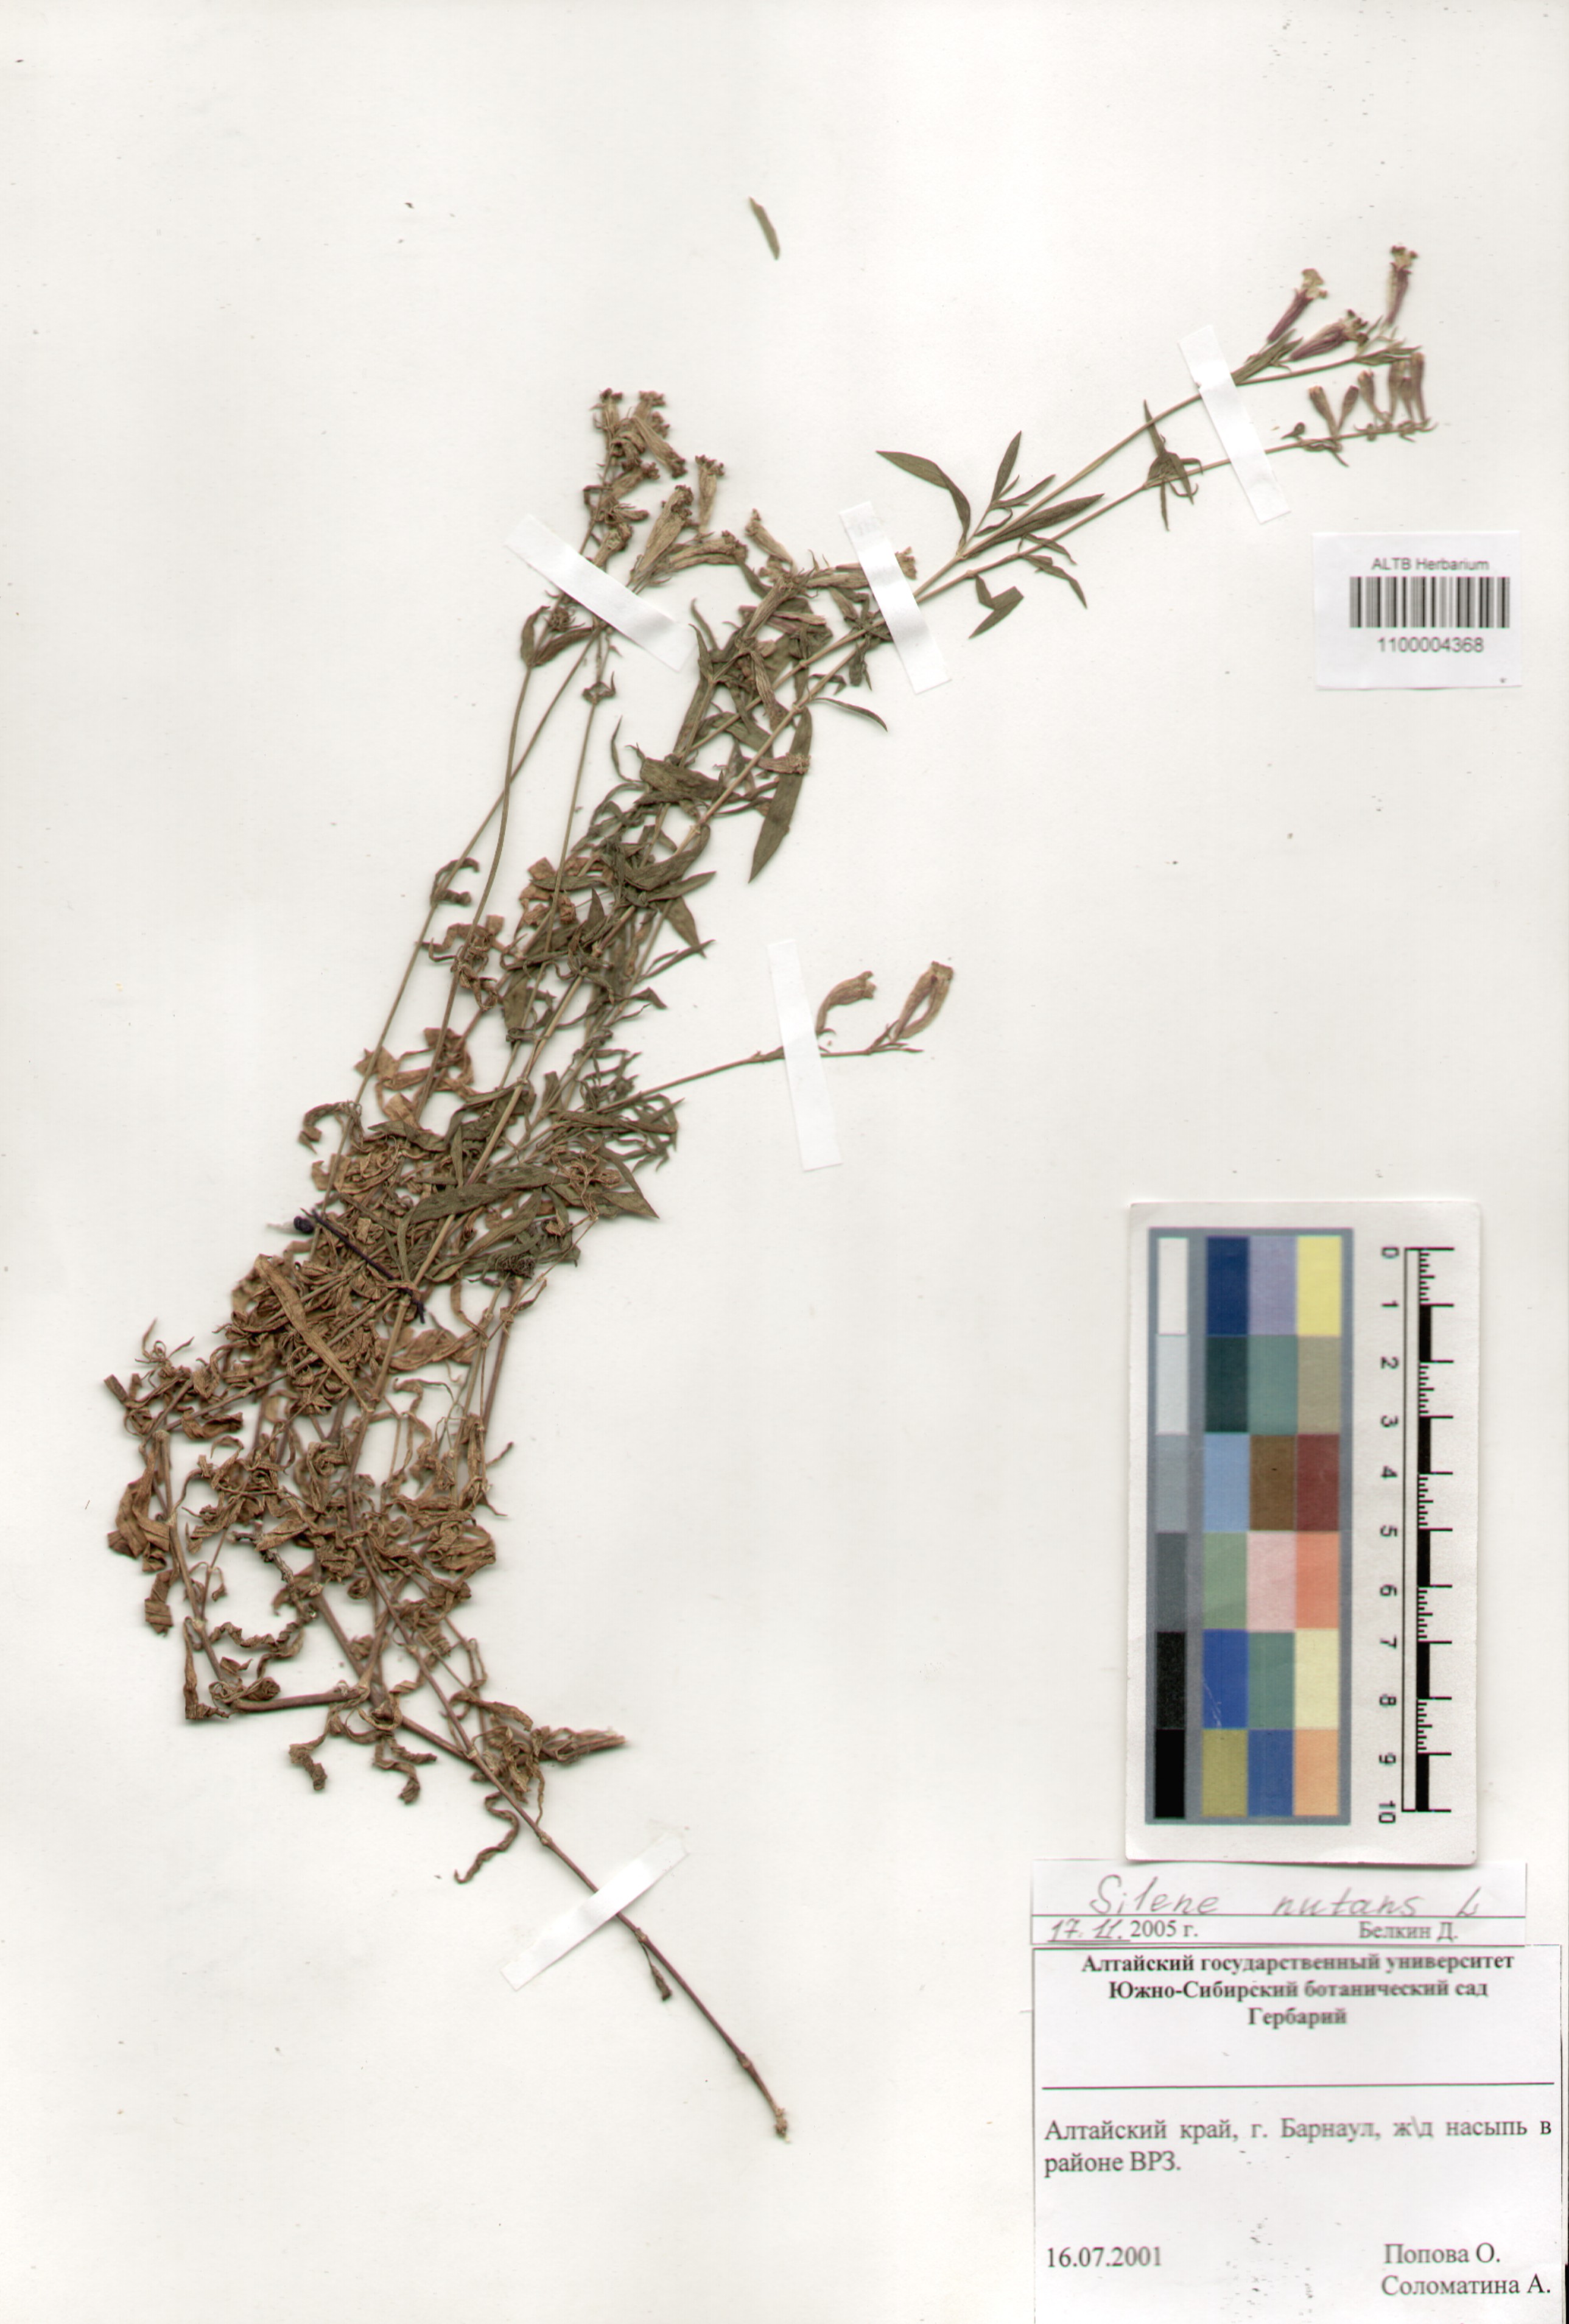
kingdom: Plantae
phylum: Tracheophyta
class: Magnoliopsida
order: Caryophyllales
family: Caryophyllaceae
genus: Silene
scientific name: Silene nutans
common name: Nottingham catchfly
